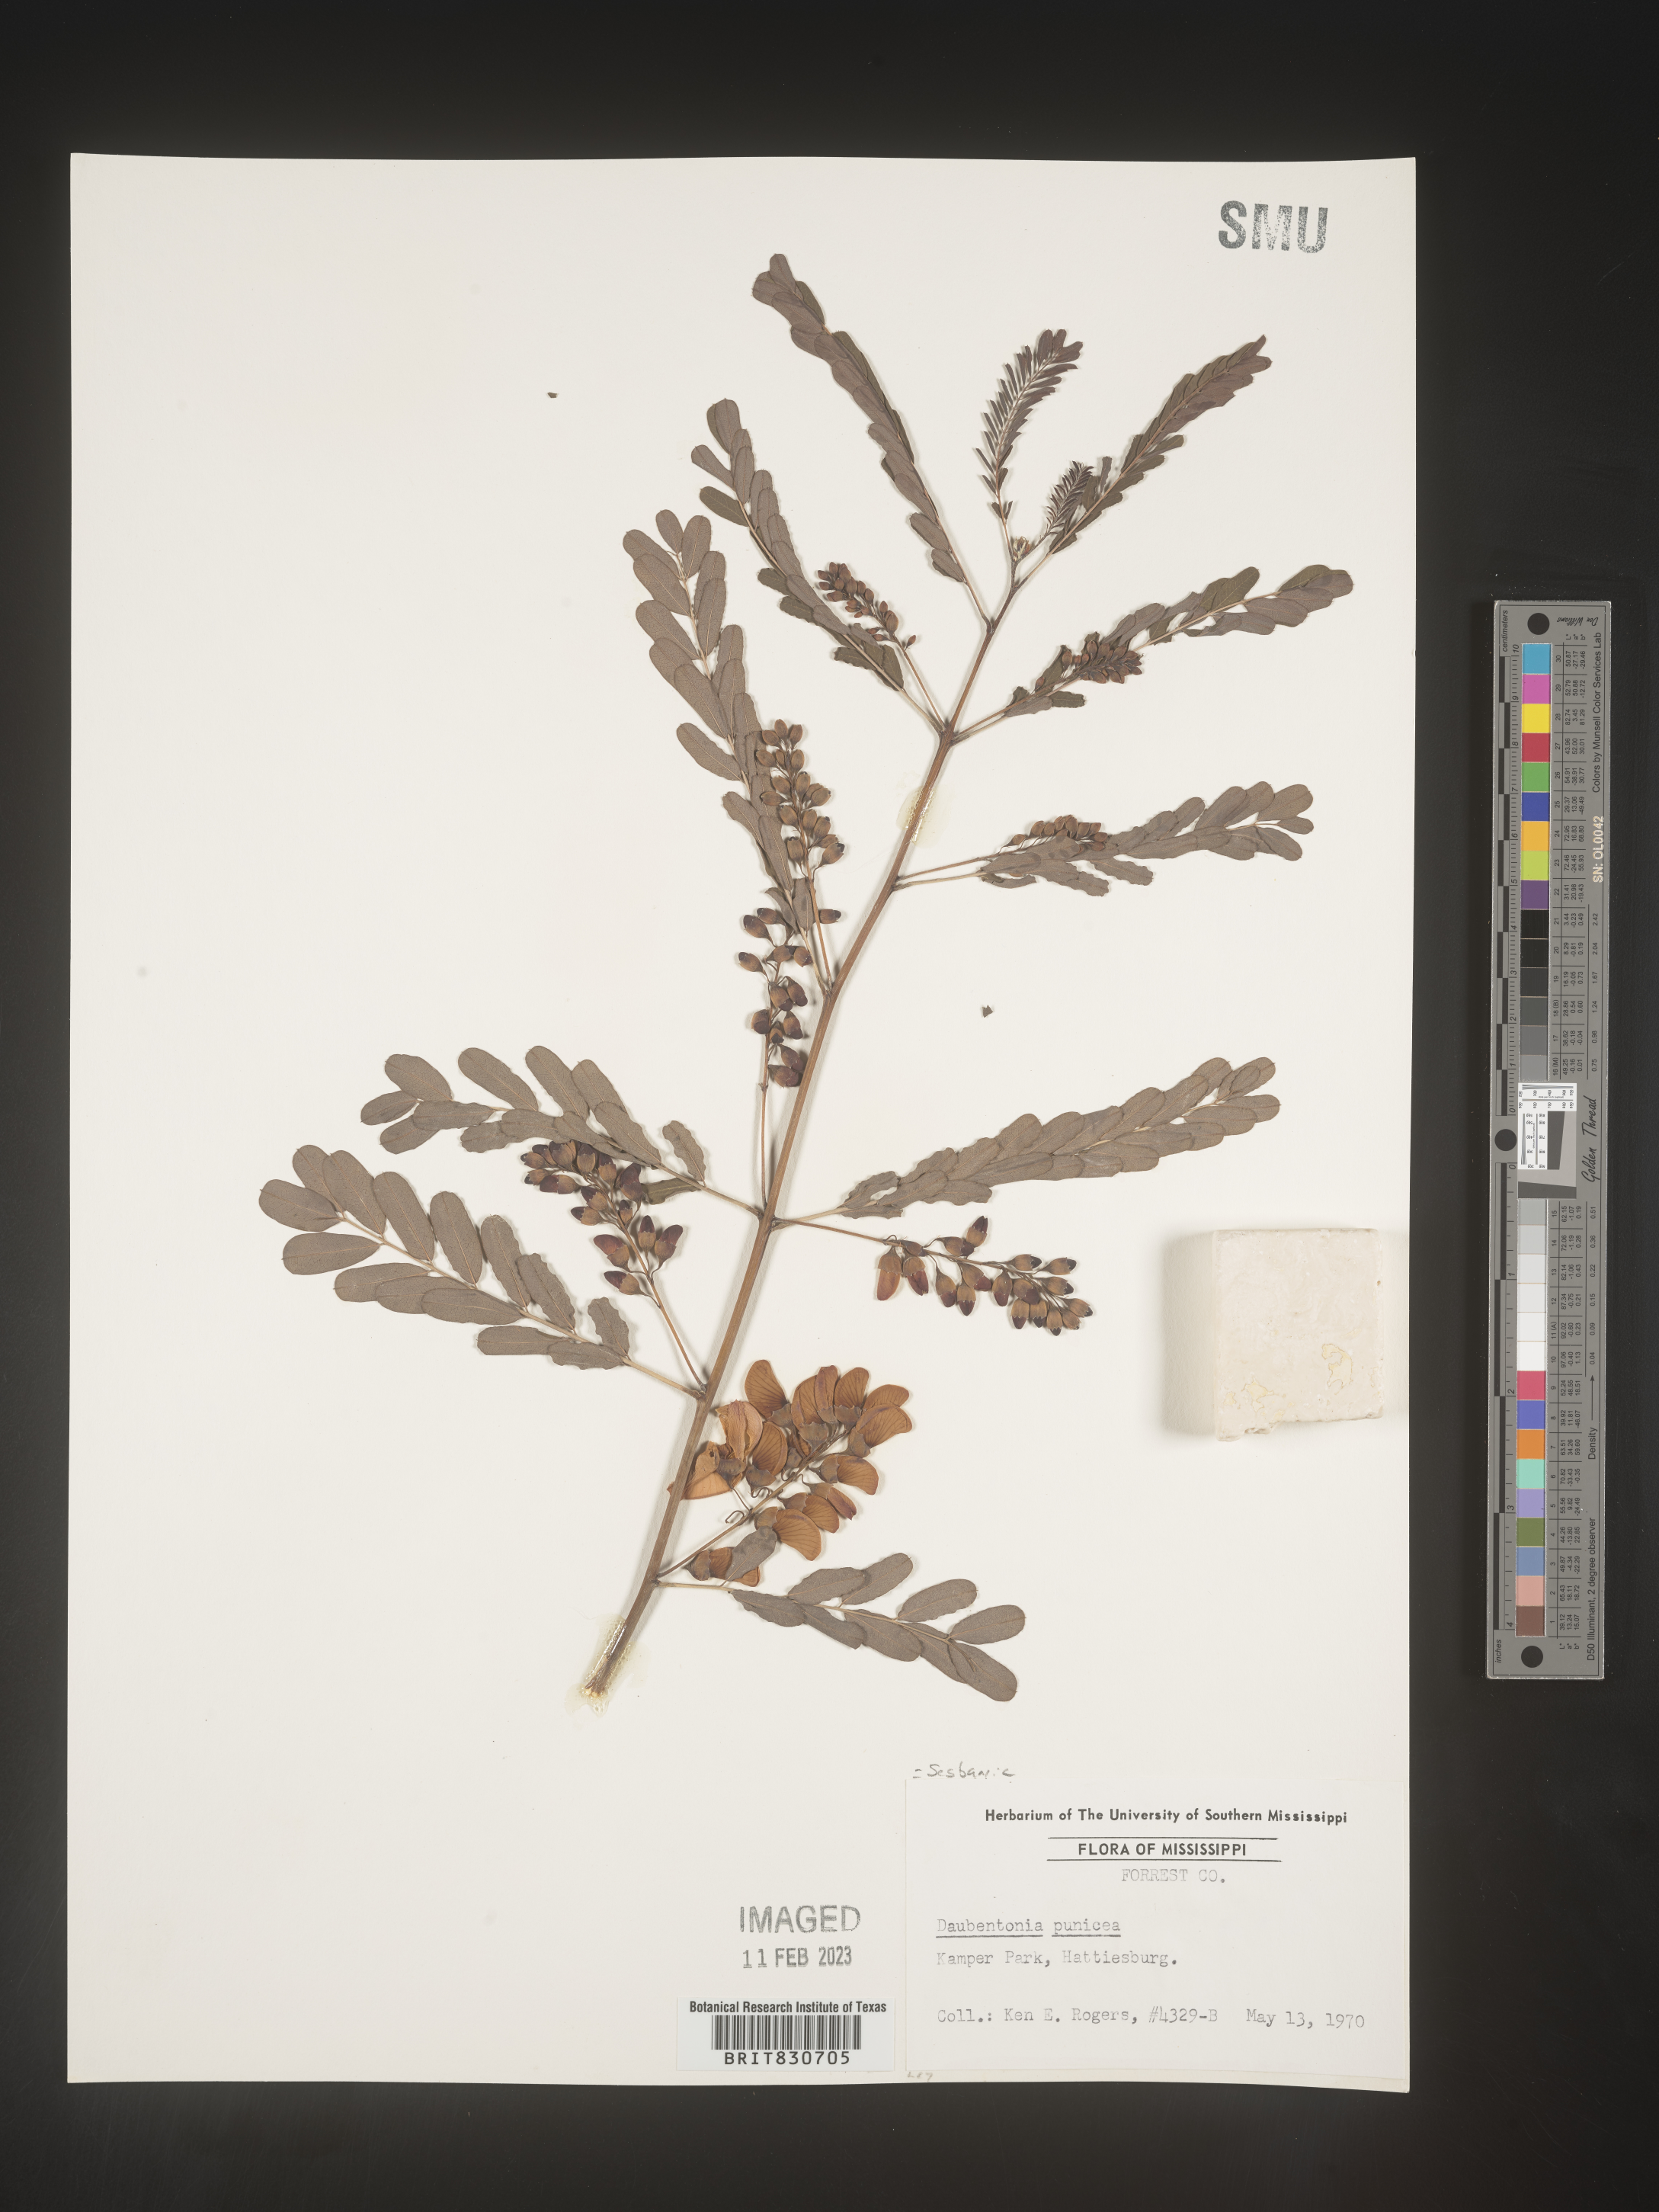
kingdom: Plantae
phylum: Tracheophyta
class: Magnoliopsida
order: Fabales
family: Fabaceae
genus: Sesbania
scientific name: Sesbania punicea
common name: Rattlebox
